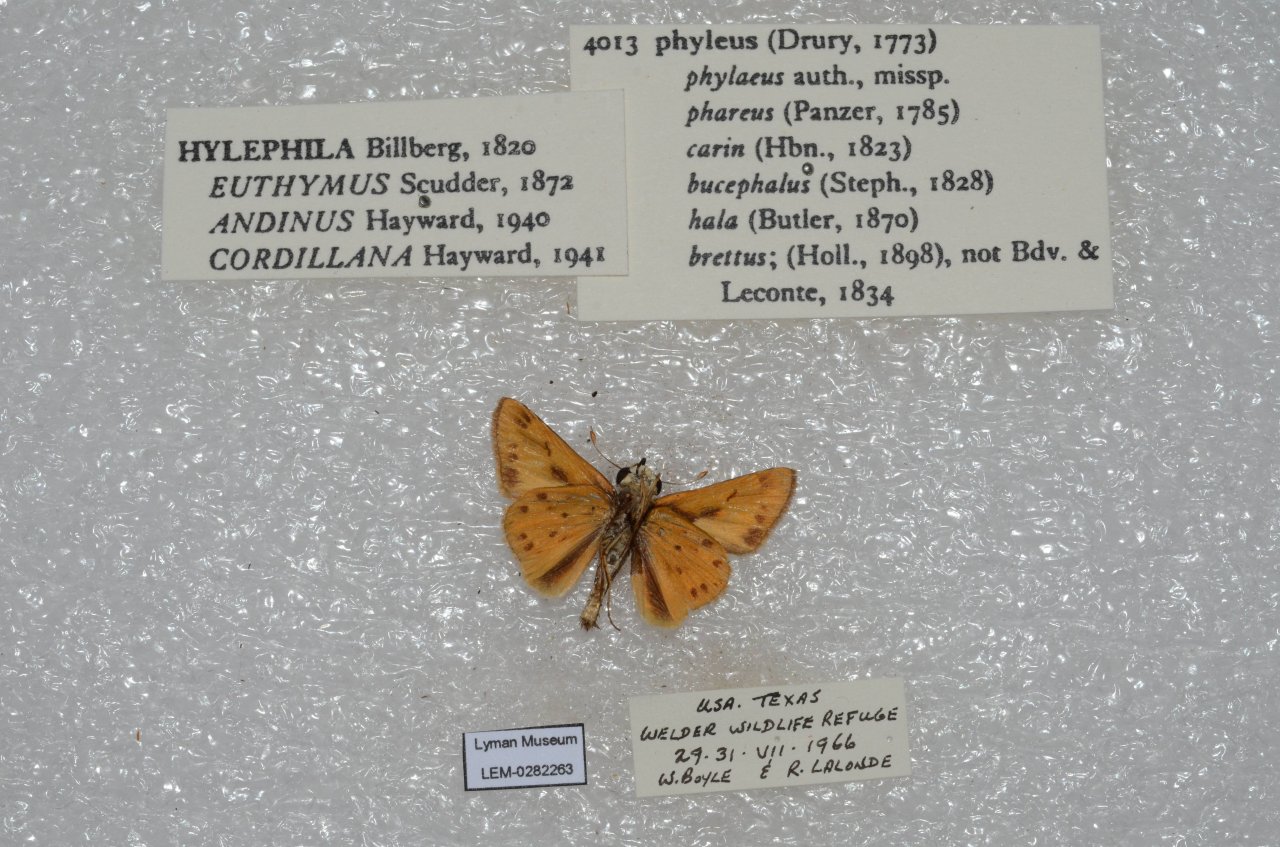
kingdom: Animalia
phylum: Arthropoda
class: Insecta
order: Lepidoptera
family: Hesperiidae
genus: Hylephila
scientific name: Hylephila phyleus
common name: Fiery Skipper
